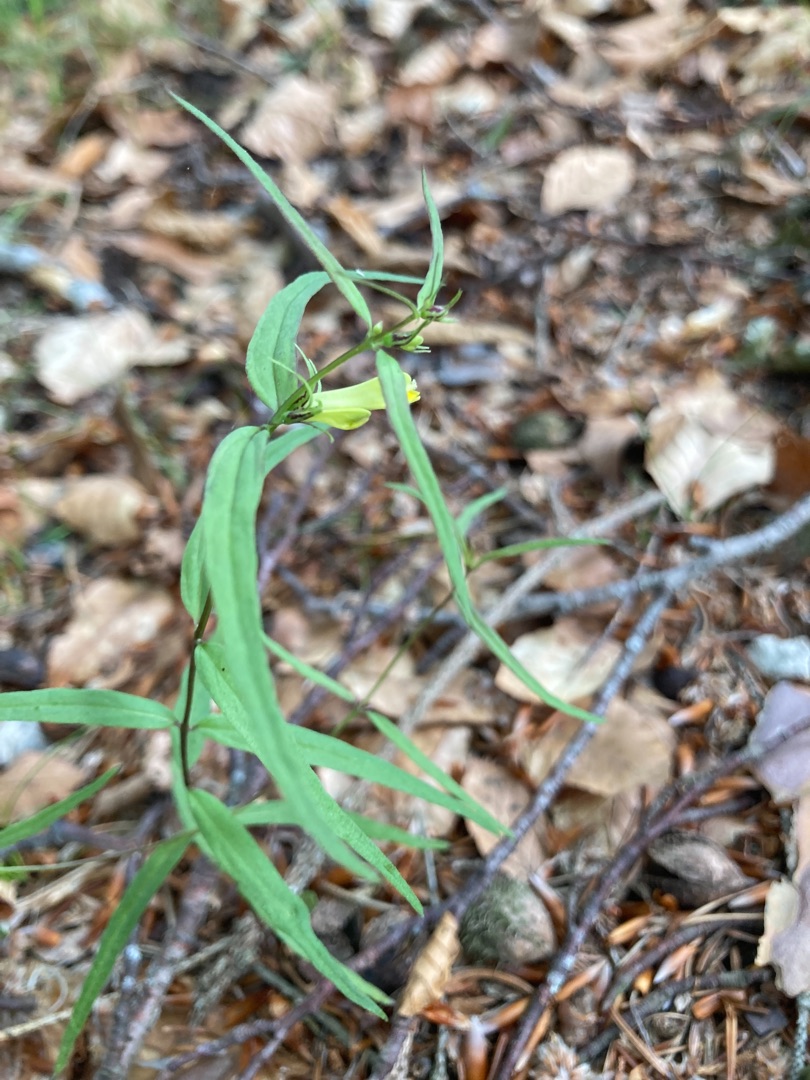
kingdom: Plantae
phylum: Tracheophyta
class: Magnoliopsida
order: Lamiales
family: Orobanchaceae
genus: Melampyrum
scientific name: Melampyrum pratense
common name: Almindelig kohvede
